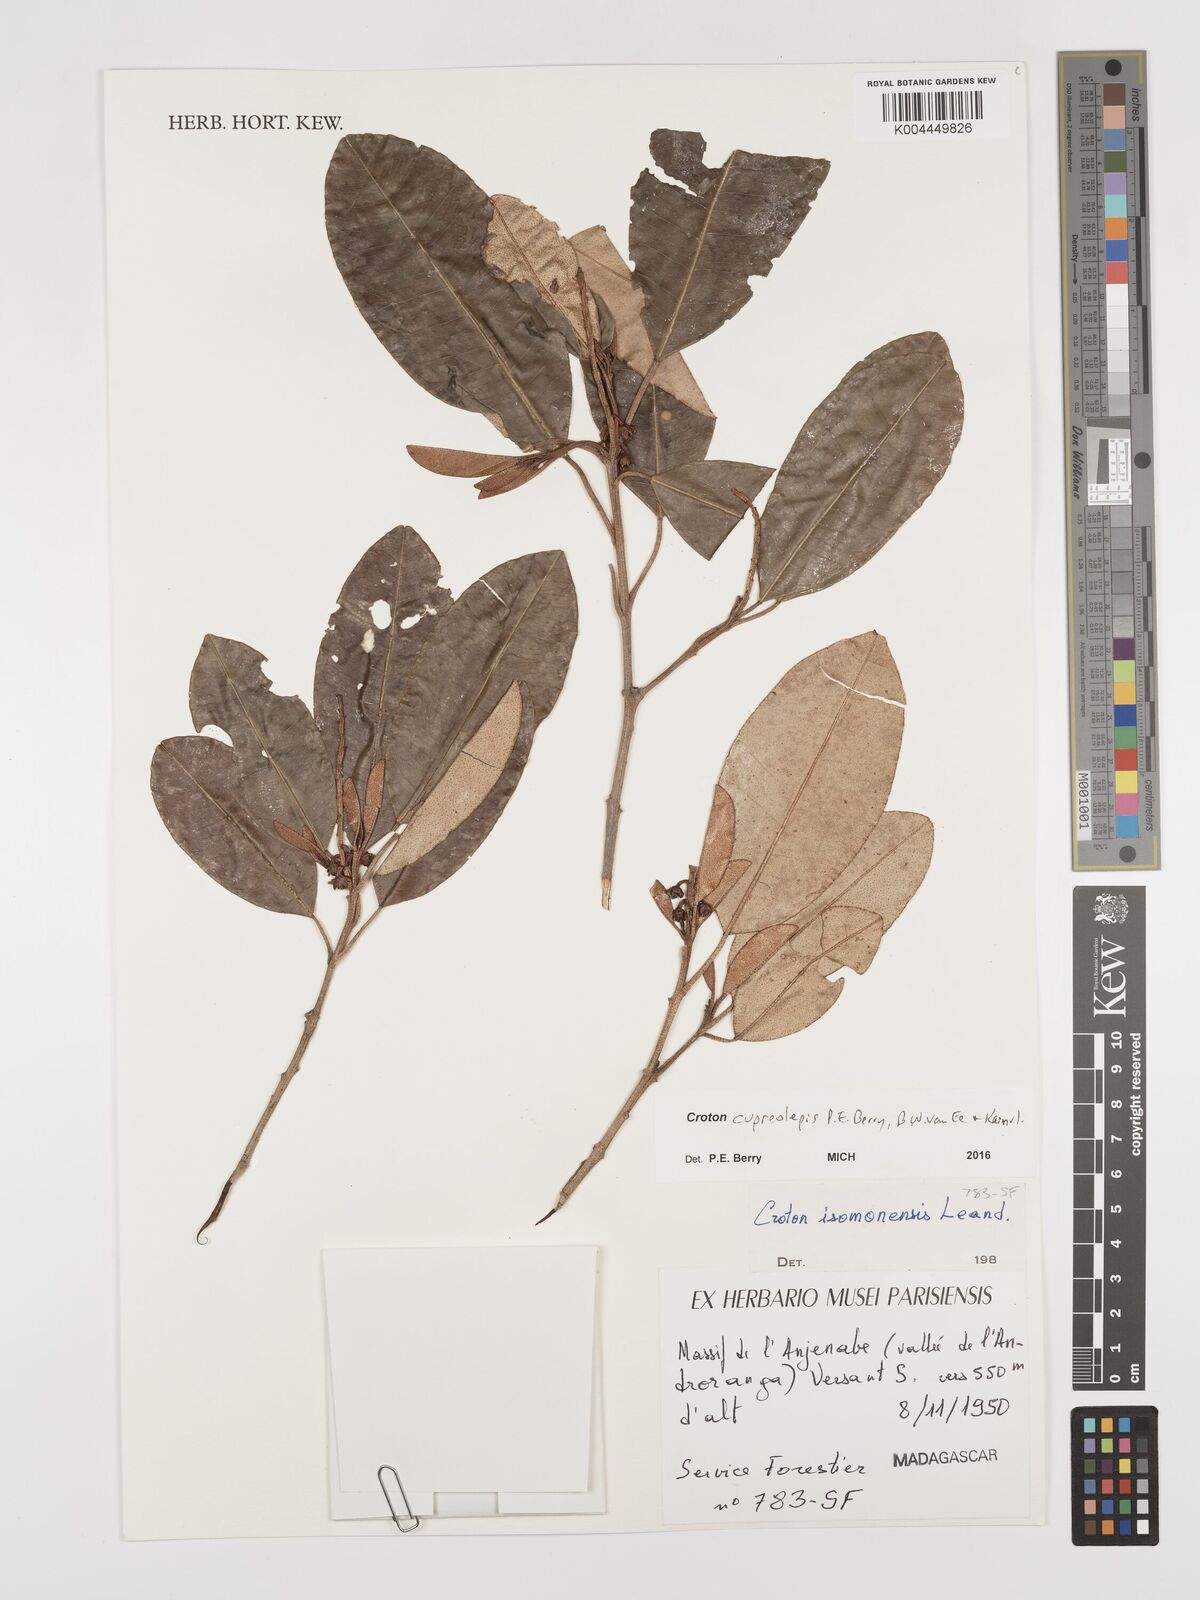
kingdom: Plantae
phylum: Tracheophyta
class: Magnoliopsida
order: Malpighiales
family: Euphorbiaceae
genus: Croton
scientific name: Croton cupreolepis
